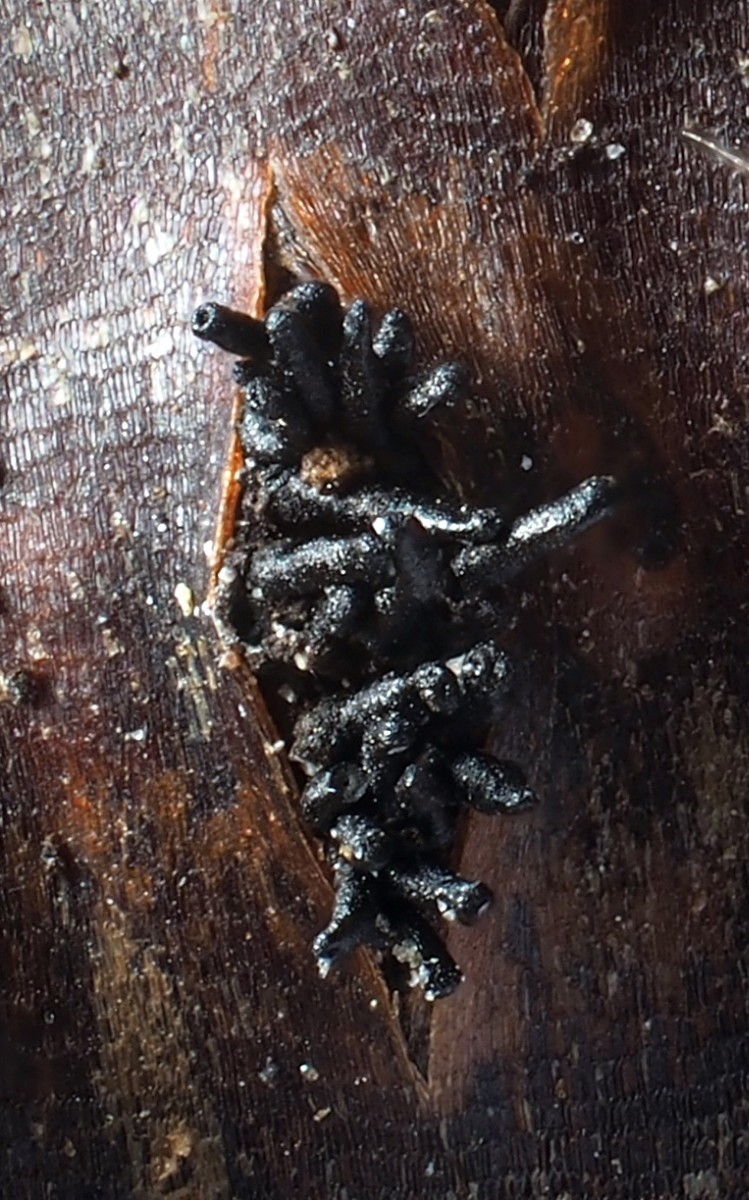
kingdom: Fungi
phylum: Ascomycota
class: Sordariomycetes
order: Diaporthales
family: Diaporthaceae
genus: Diaporthe
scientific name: Diaporthe strumella
